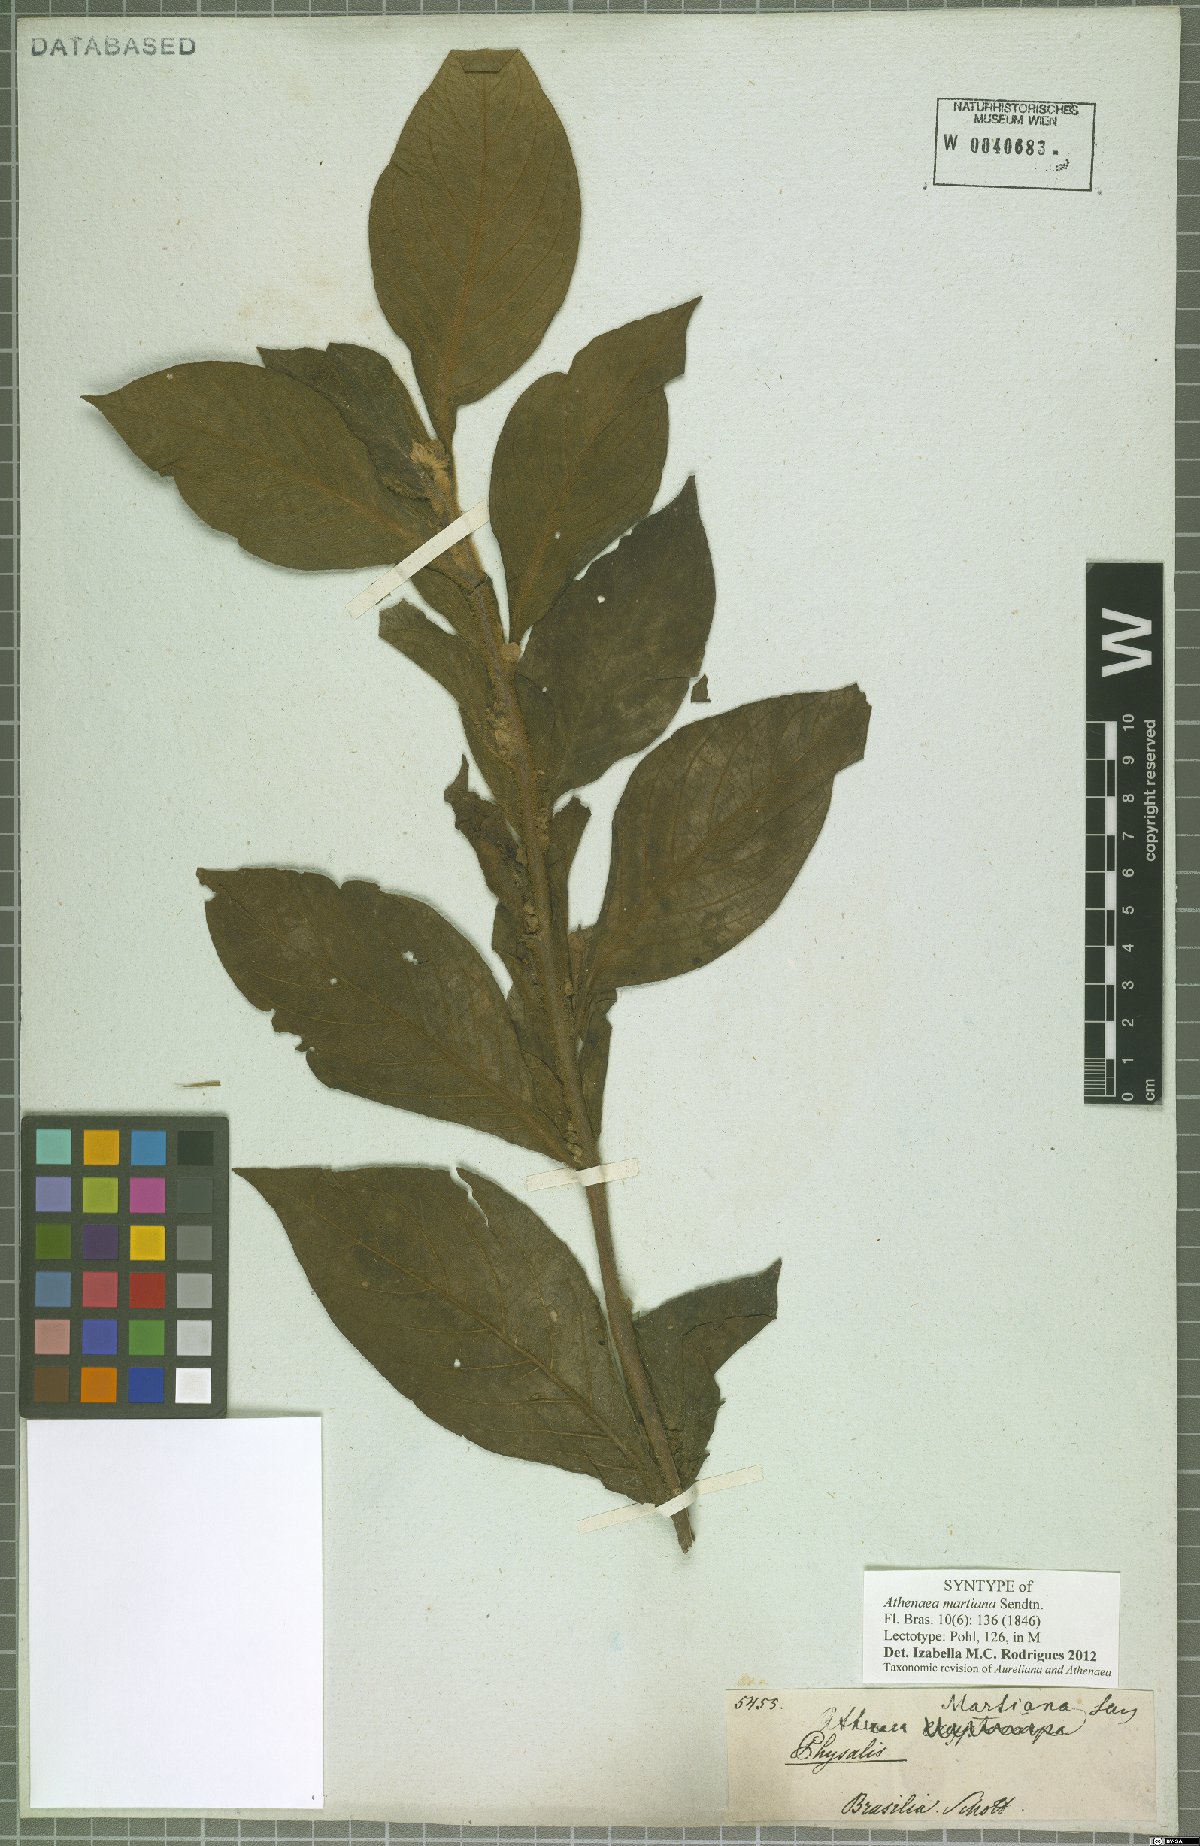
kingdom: Plantae
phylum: Tracheophyta
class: Magnoliopsida
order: Solanales
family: Solanaceae
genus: Athenaea
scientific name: Athenaea martiana
